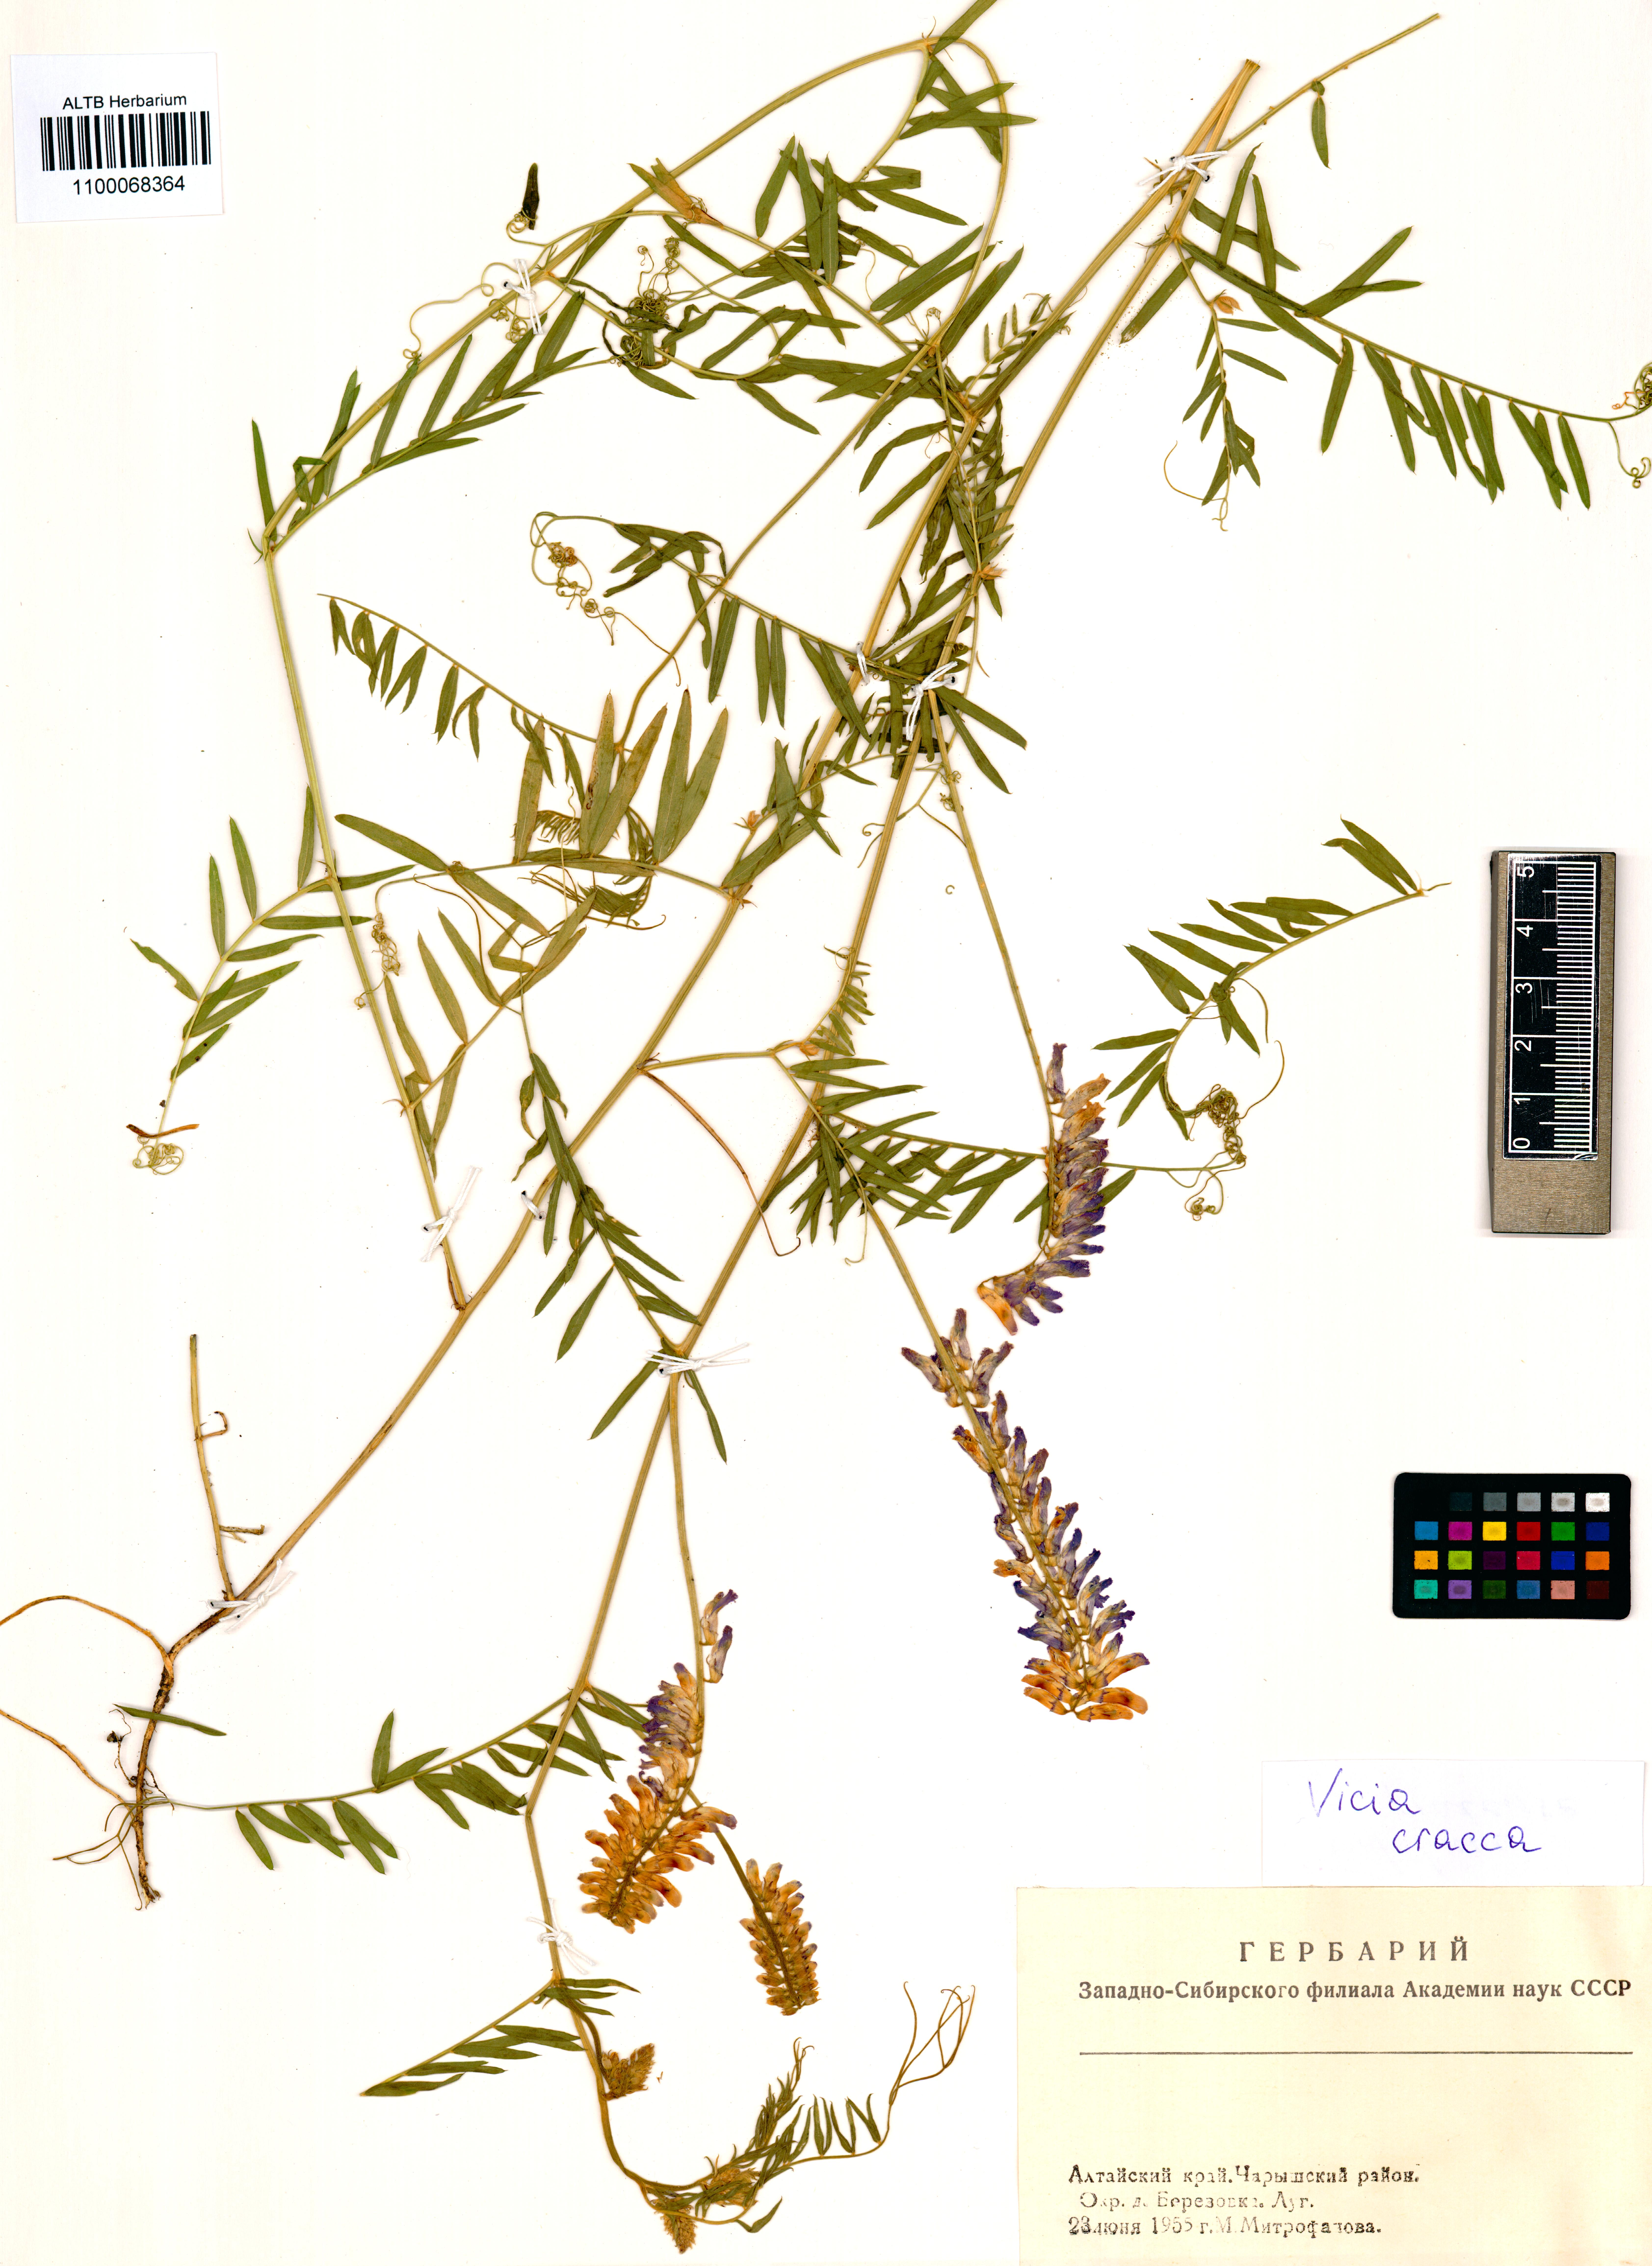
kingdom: Plantae
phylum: Tracheophyta
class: Magnoliopsida
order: Fabales
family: Fabaceae
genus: Vicia
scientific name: Vicia cracca
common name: Bird vetch
